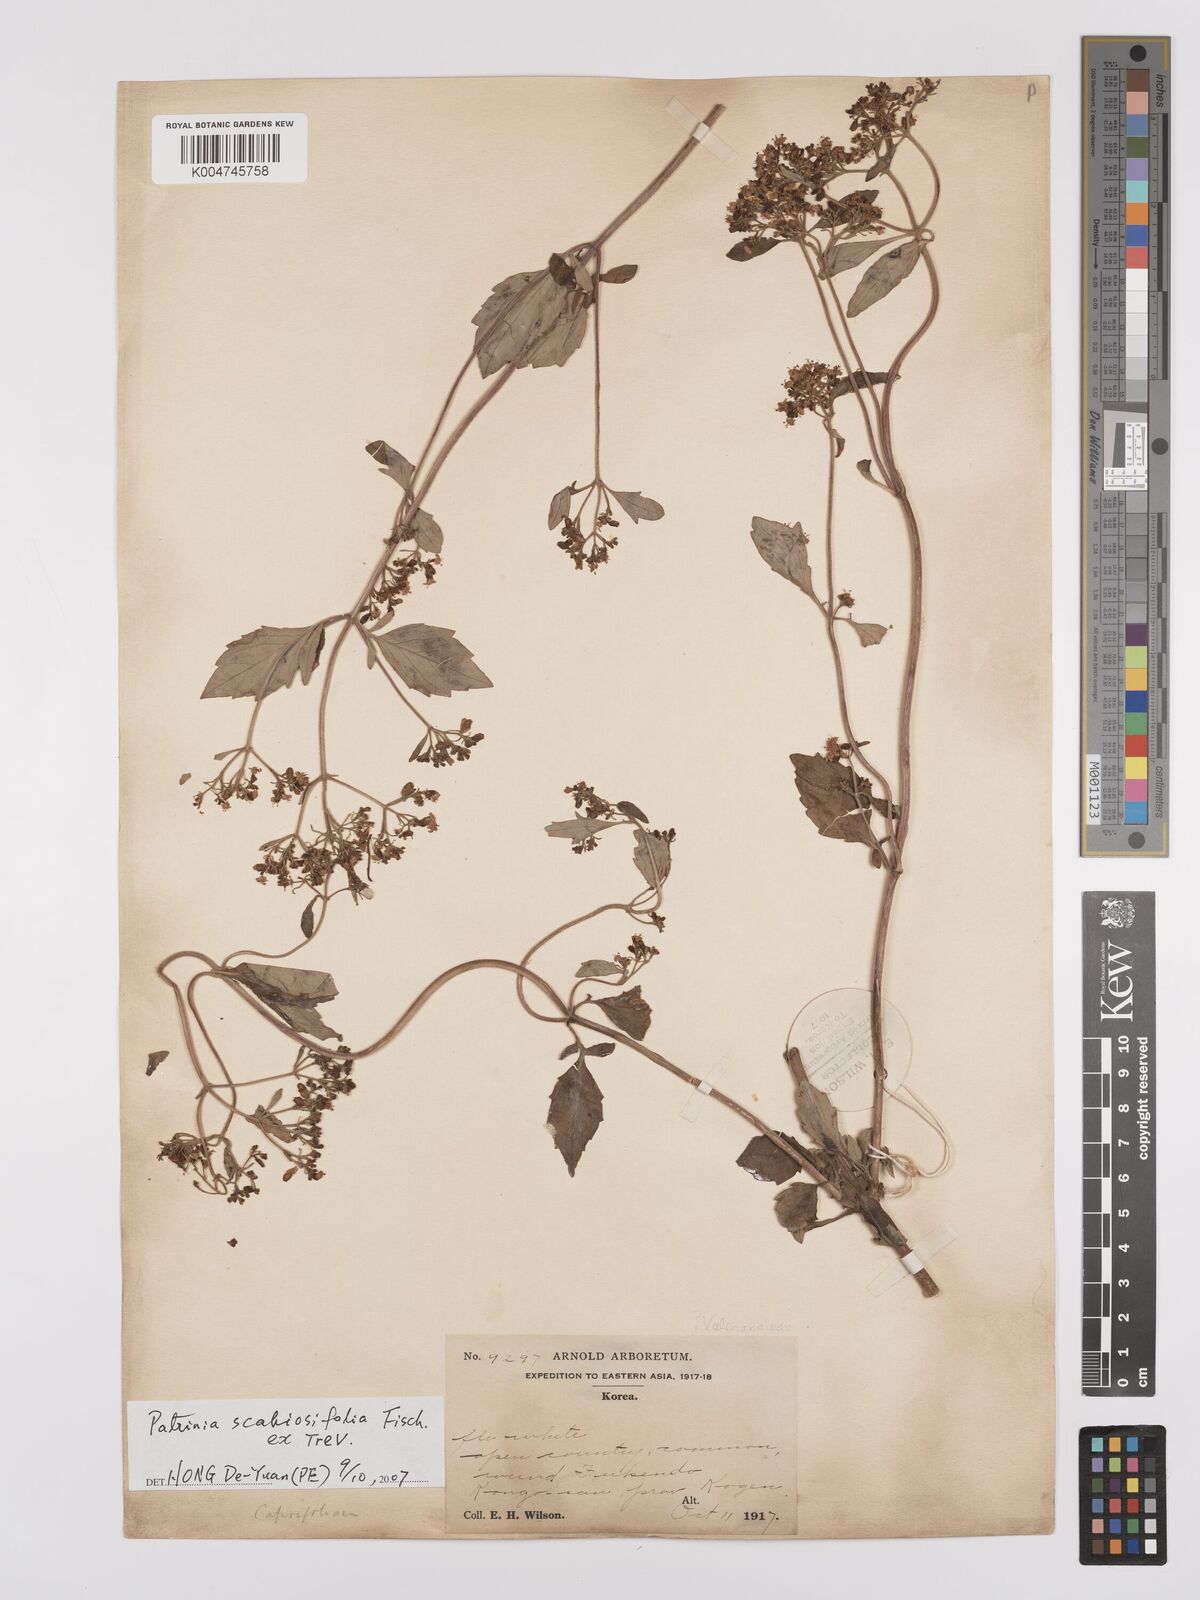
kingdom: Plantae
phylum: Tracheophyta
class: Magnoliopsida
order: Dipsacales
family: Caprifoliaceae
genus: Patrinia
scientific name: Patrinia
